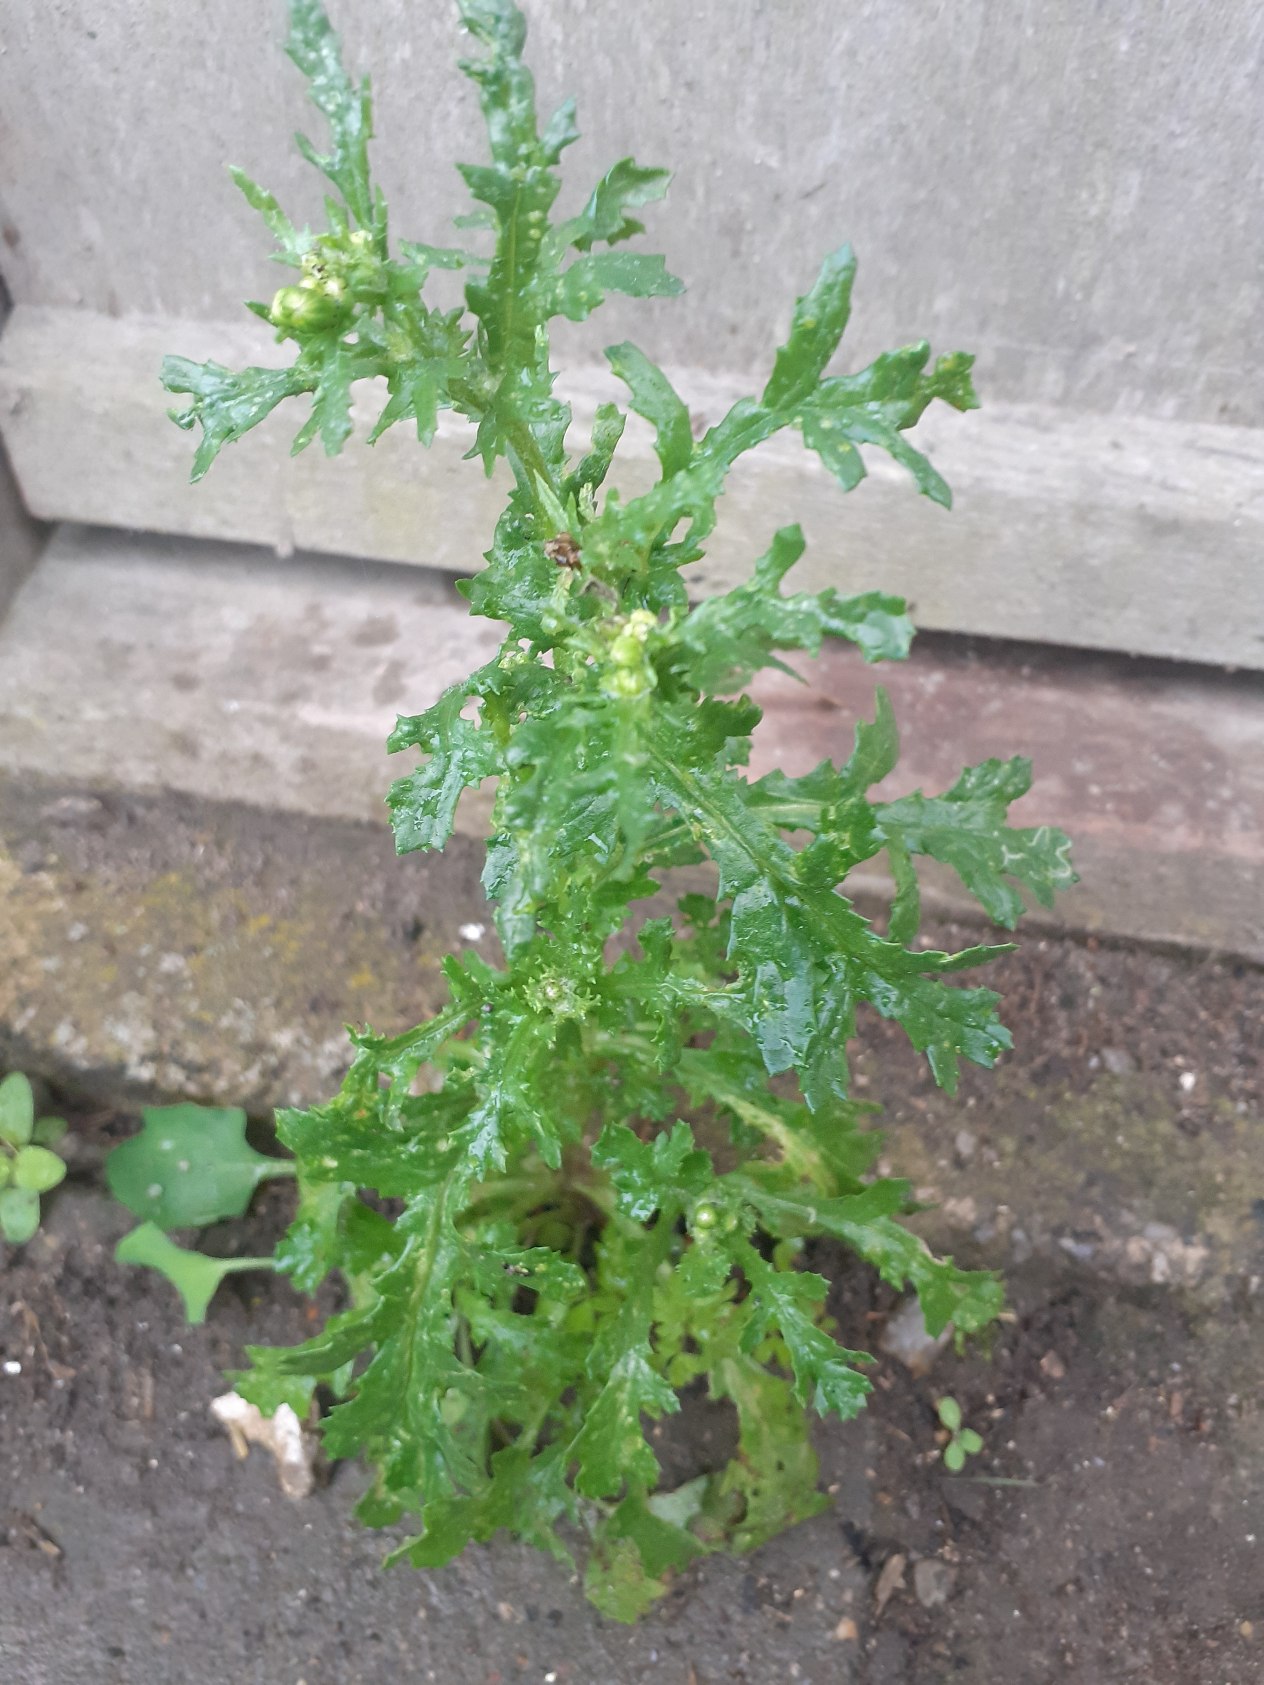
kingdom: Plantae
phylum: Tracheophyta
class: Magnoliopsida
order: Asterales
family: Asteraceae
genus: Senecio
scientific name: Senecio vulgaris
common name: Almindelig brandbæger
